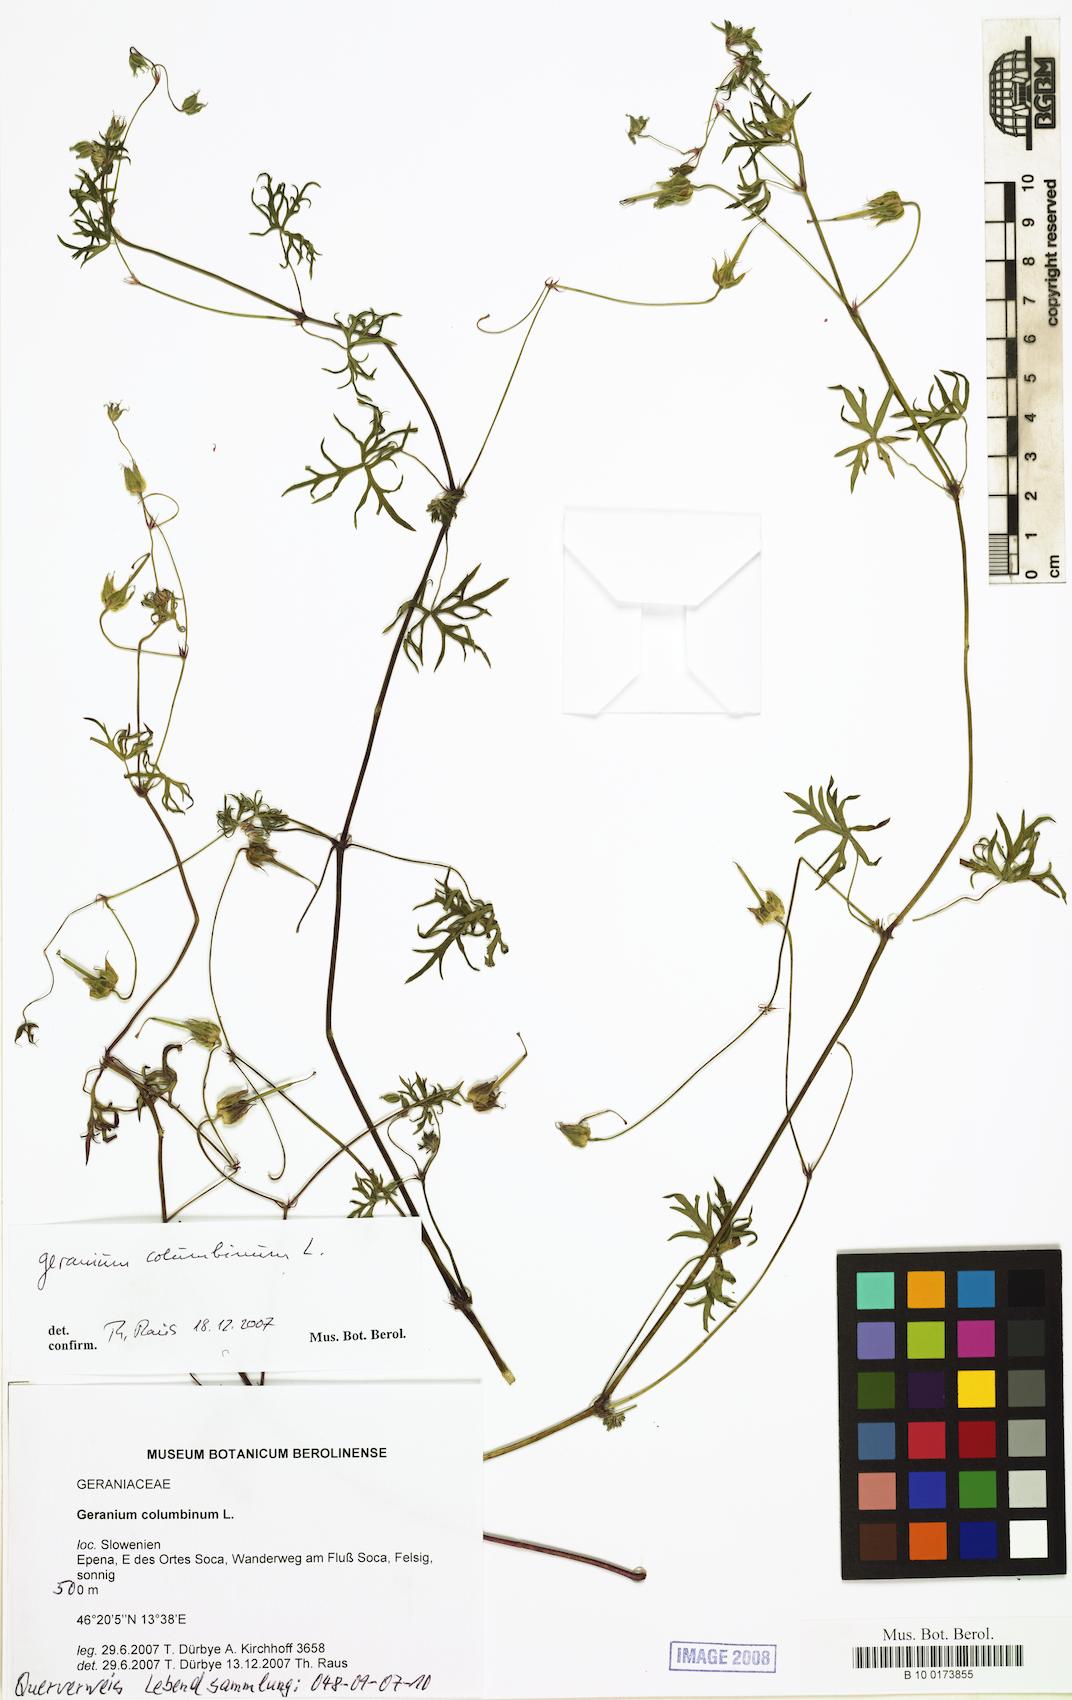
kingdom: Plantae
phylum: Tracheophyta
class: Magnoliopsida
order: Geraniales
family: Geraniaceae
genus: Geranium
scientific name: Geranium columbinum
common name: Long-stalked crane's-bill
